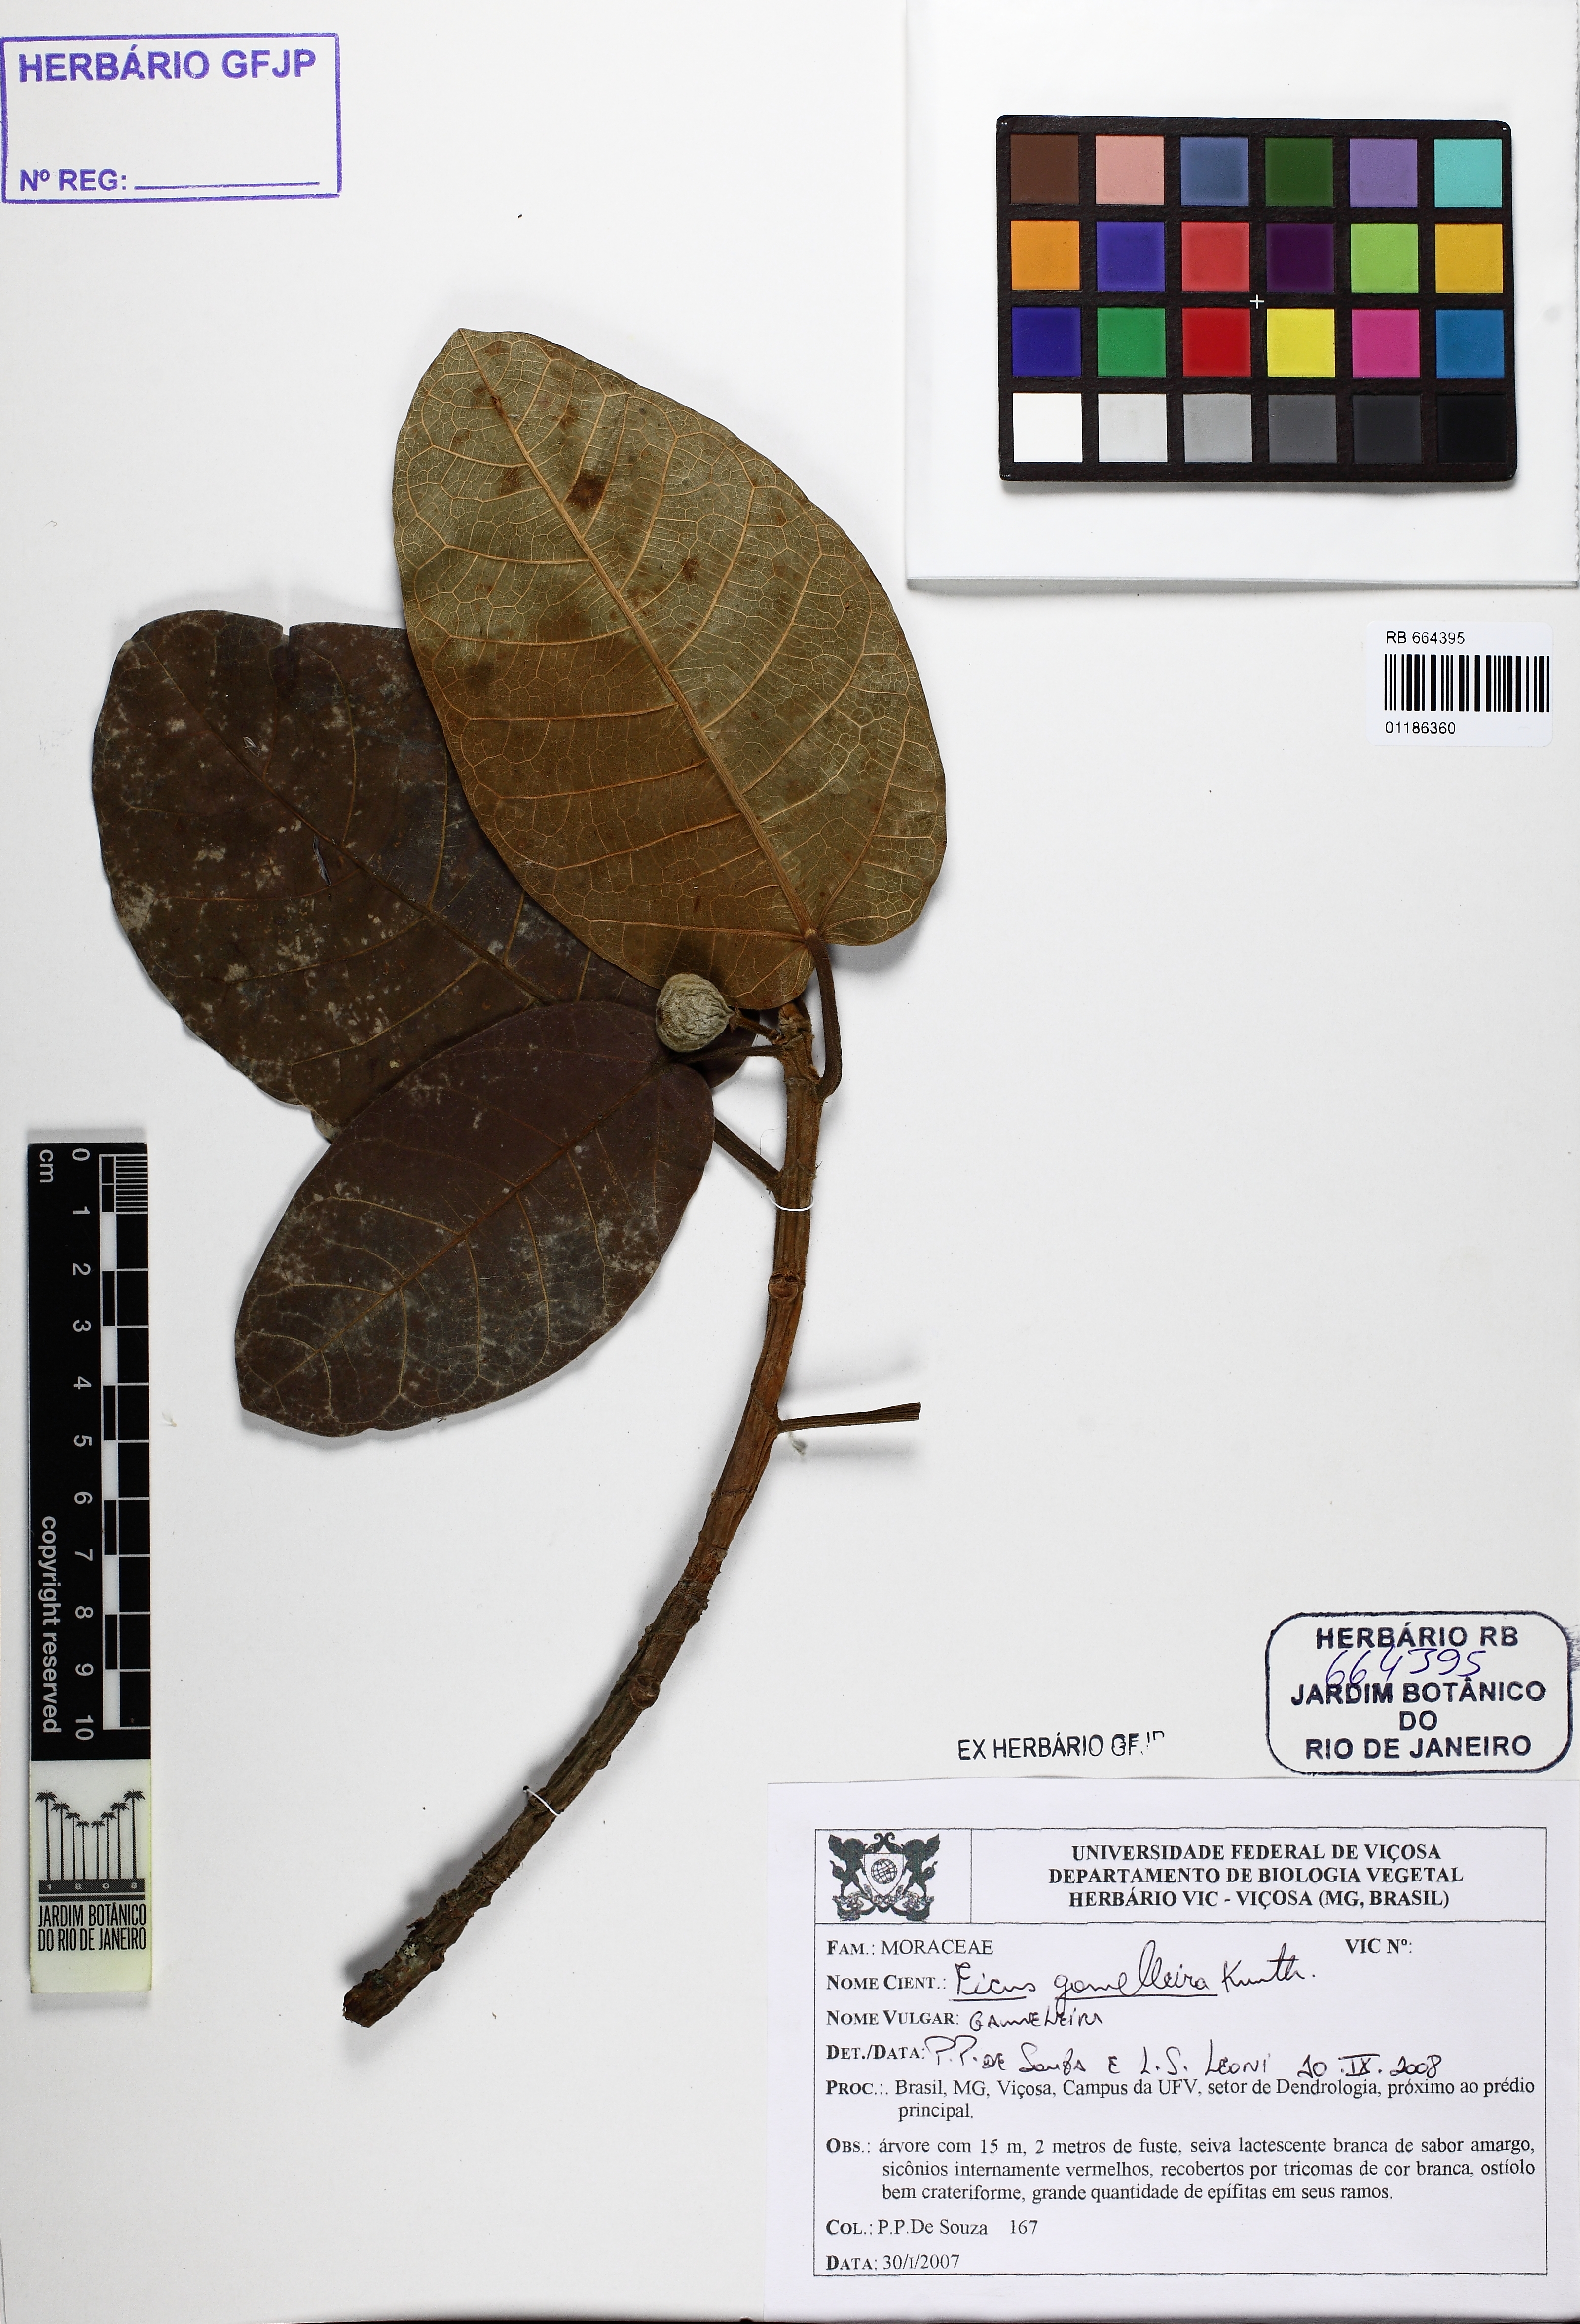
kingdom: Plantae
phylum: Tracheophyta
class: Magnoliopsida
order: Rosales
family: Moraceae
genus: Ficus
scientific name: Ficus gomelleira
